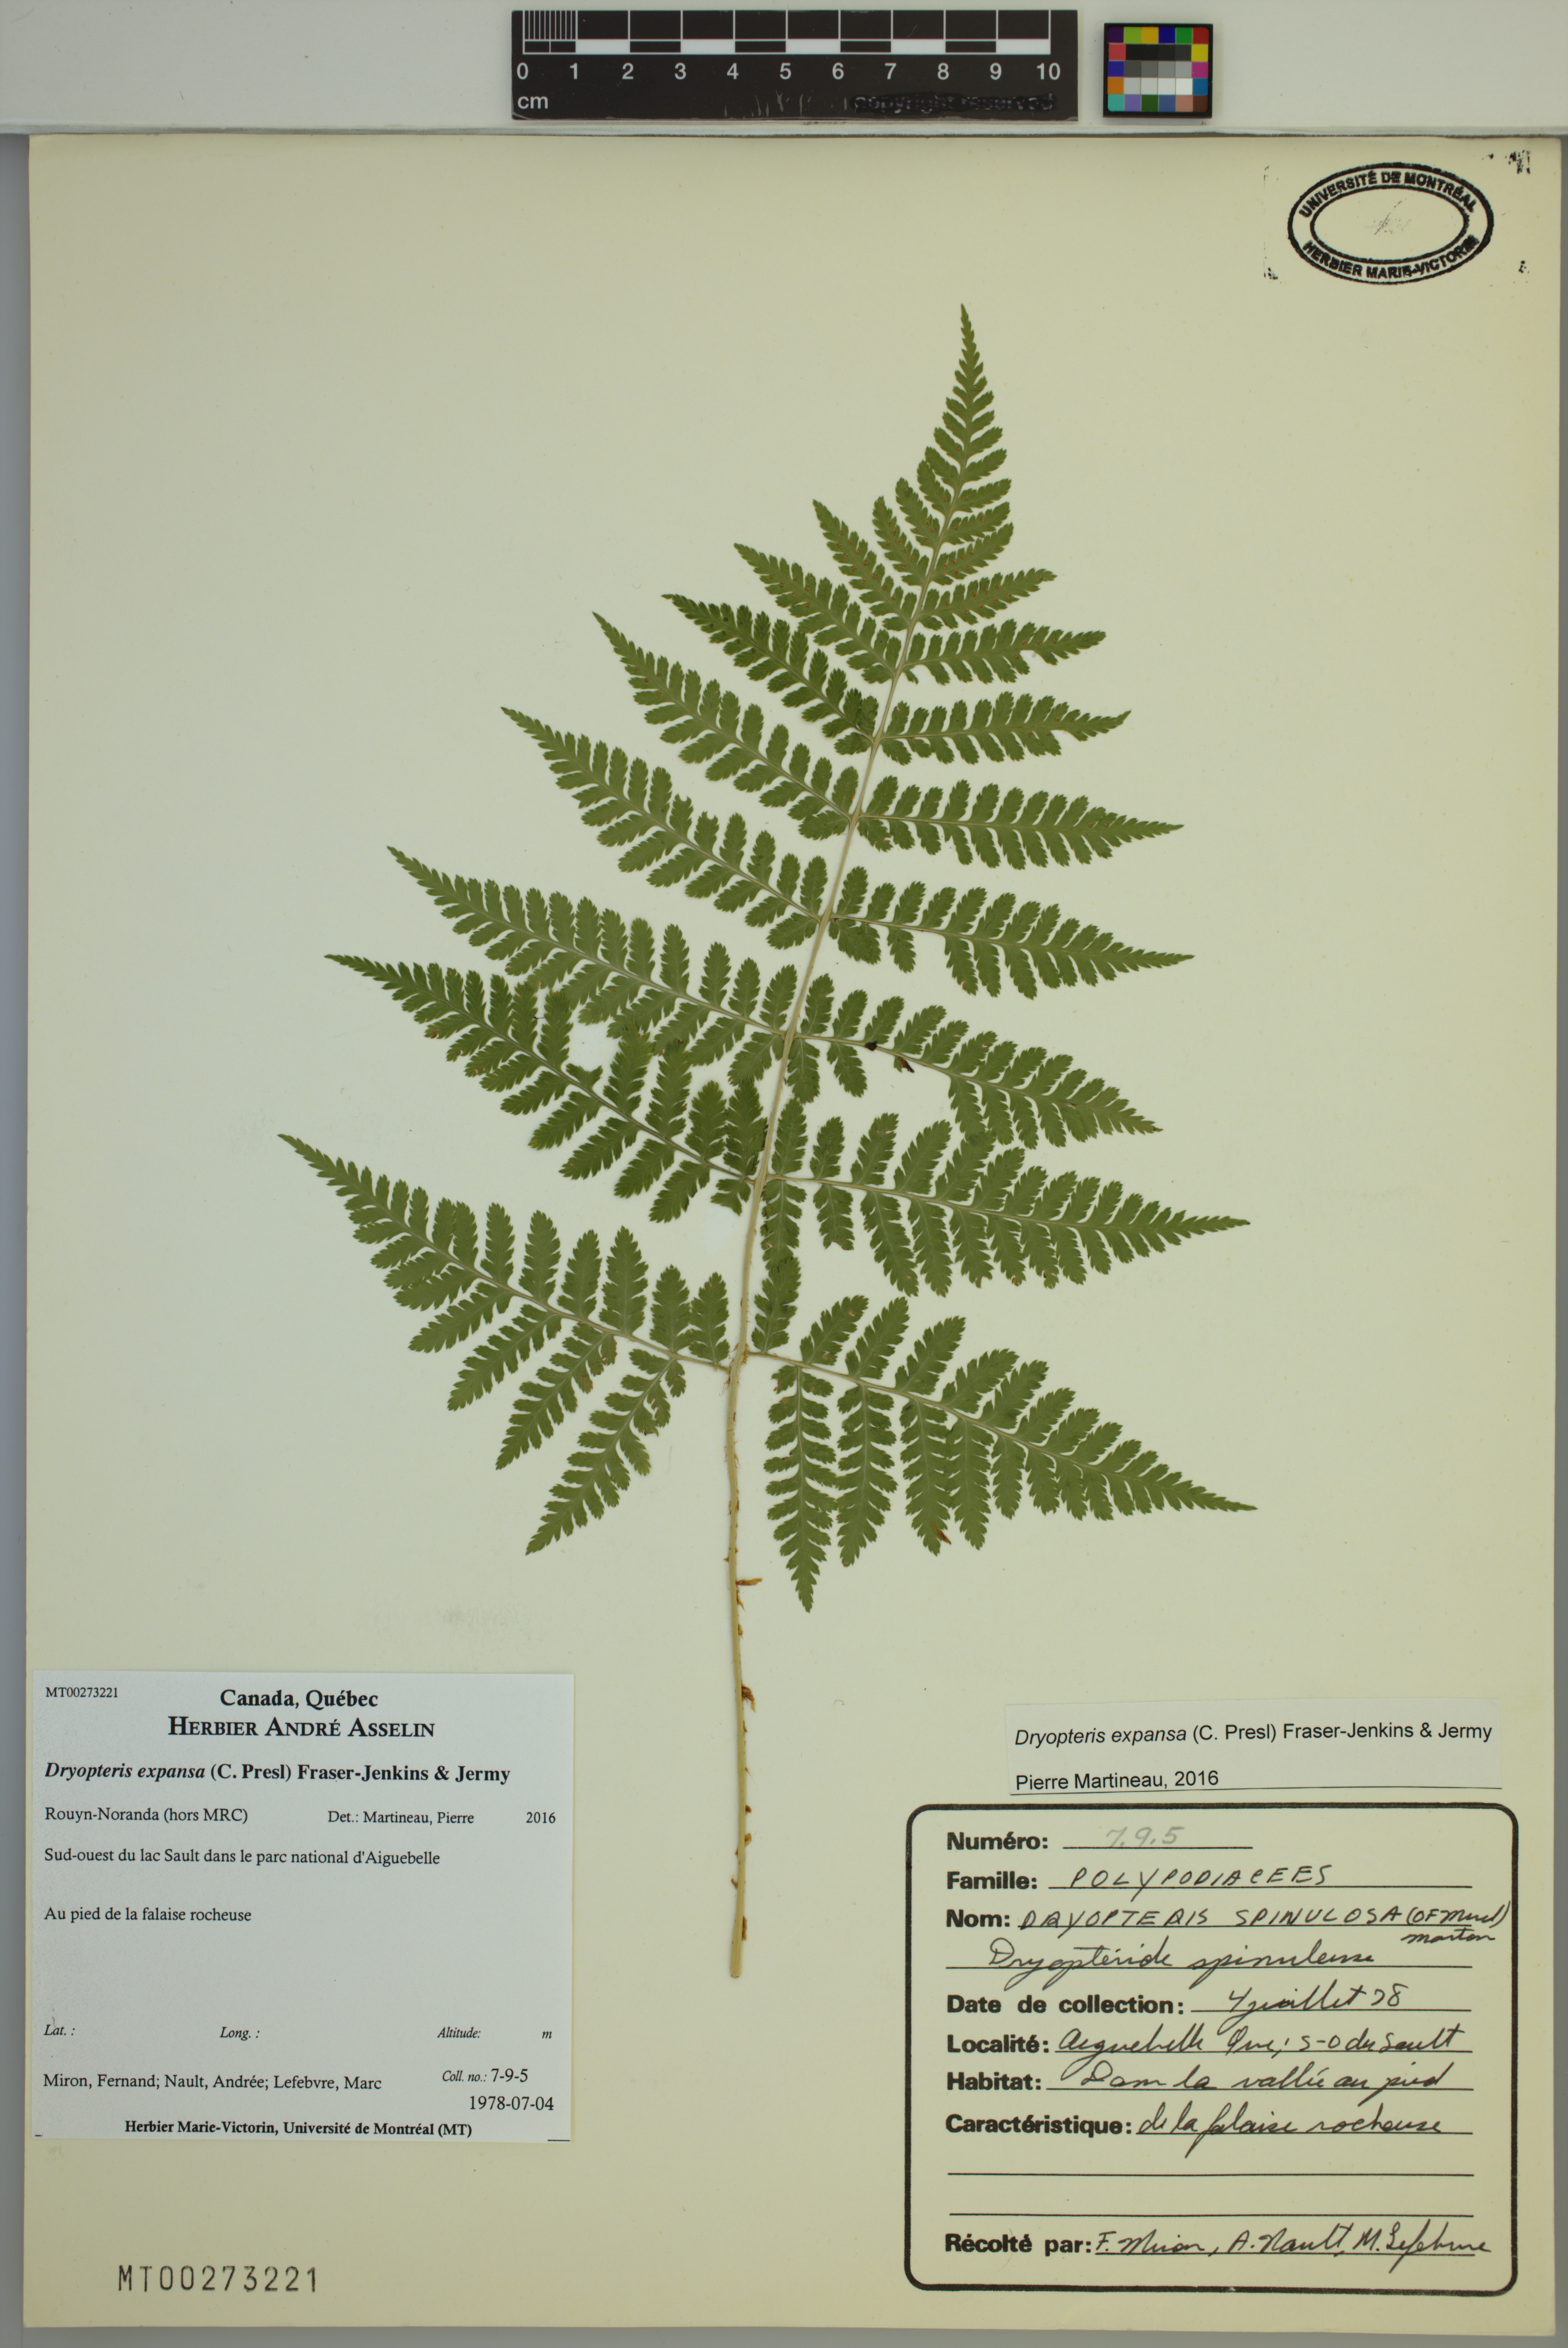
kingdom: Plantae
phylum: Tracheophyta
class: Polypodiopsida
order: Polypodiales
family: Dryopteridaceae
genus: Dryopteris
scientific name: Dryopteris expansa
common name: Northern buckler fern
